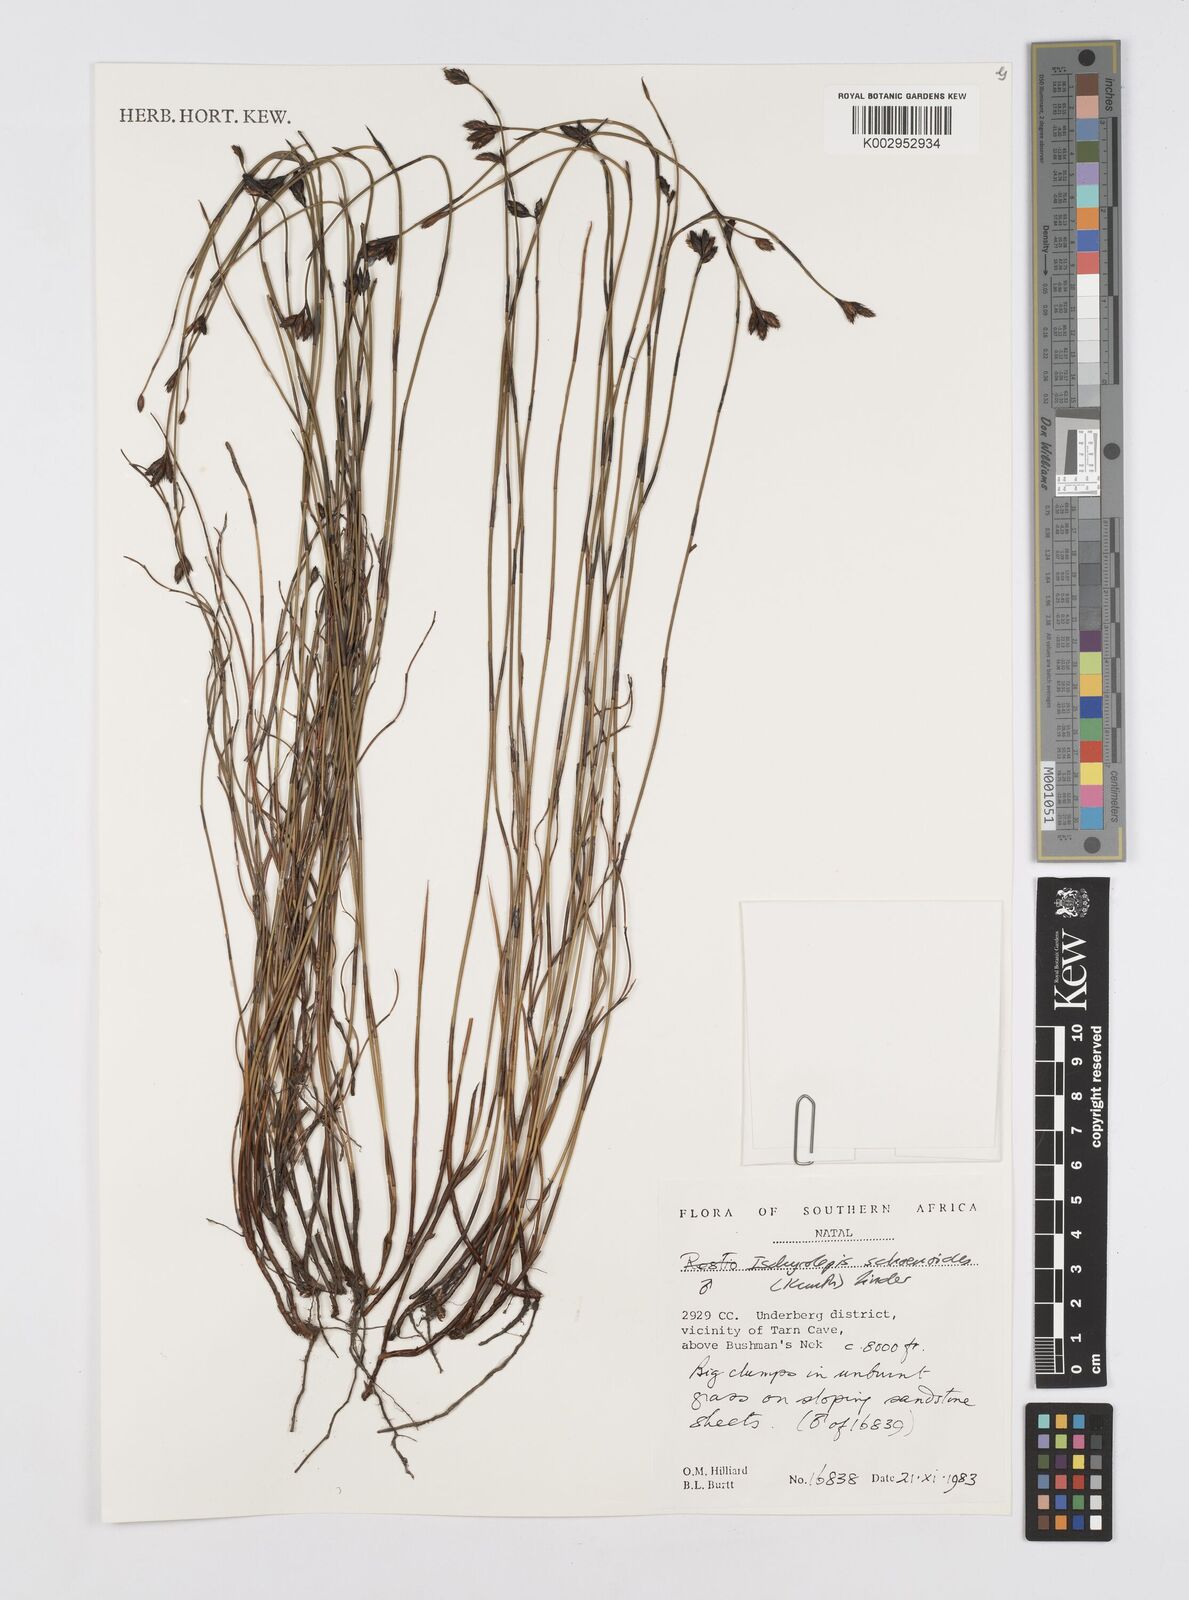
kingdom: Plantae
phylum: Tracheophyta
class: Liliopsida
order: Poales
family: Restionaceae
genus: Restio
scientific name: Restio schoenoides
